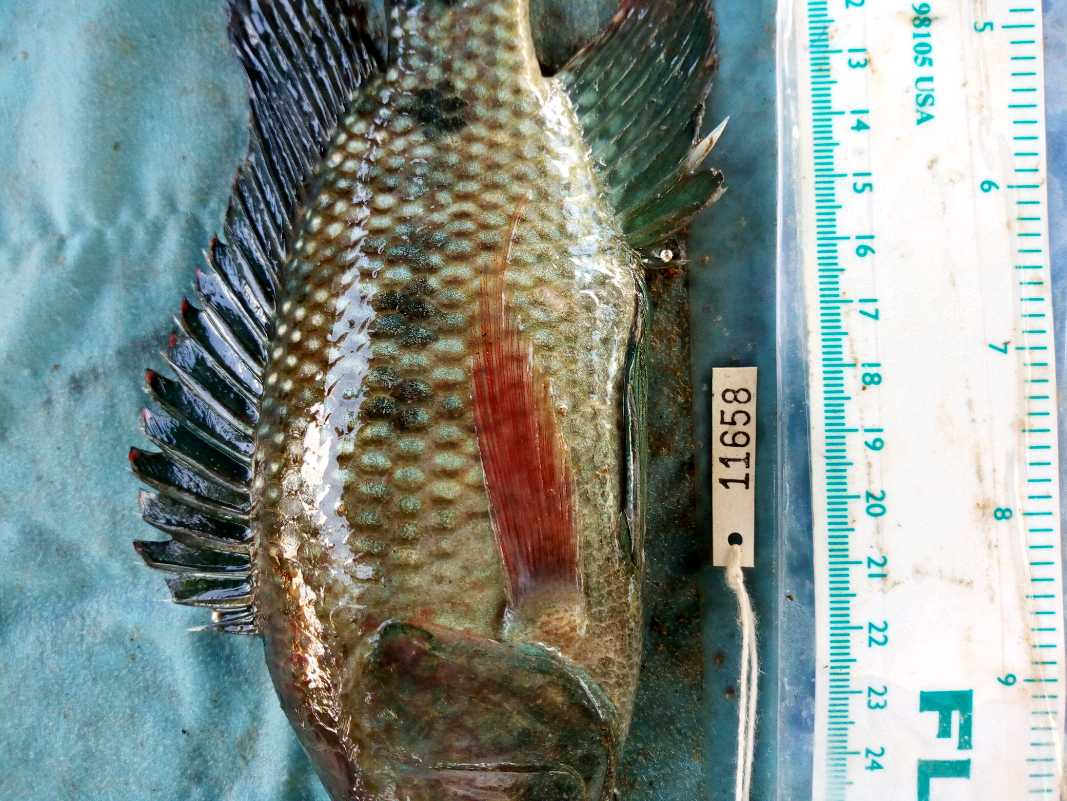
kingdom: Animalia
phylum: Chordata
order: Perciformes
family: Cichlidae
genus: Oreochromis
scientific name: Oreochromis spilurus
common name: Sabaki tilapia
